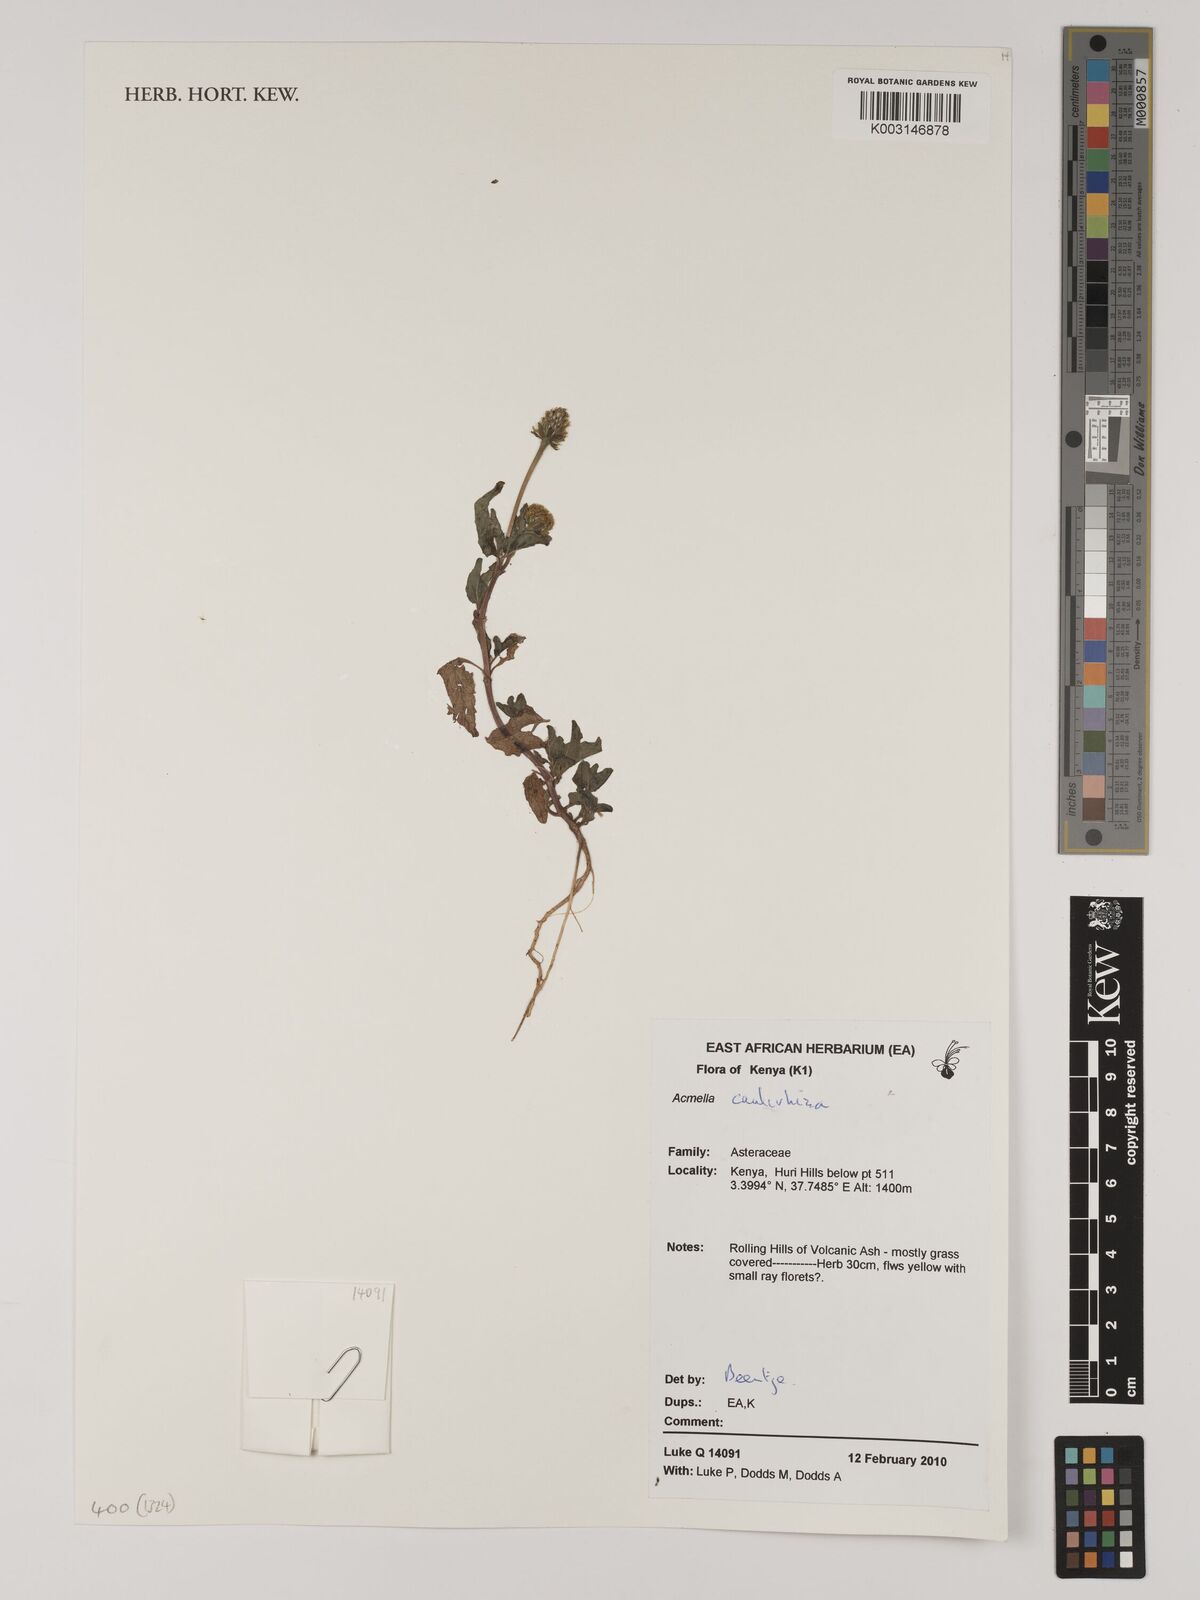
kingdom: Plantae
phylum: Tracheophyta
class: Magnoliopsida
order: Asterales
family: Asteraceae
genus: Acmella
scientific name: Acmella caulirhiza
